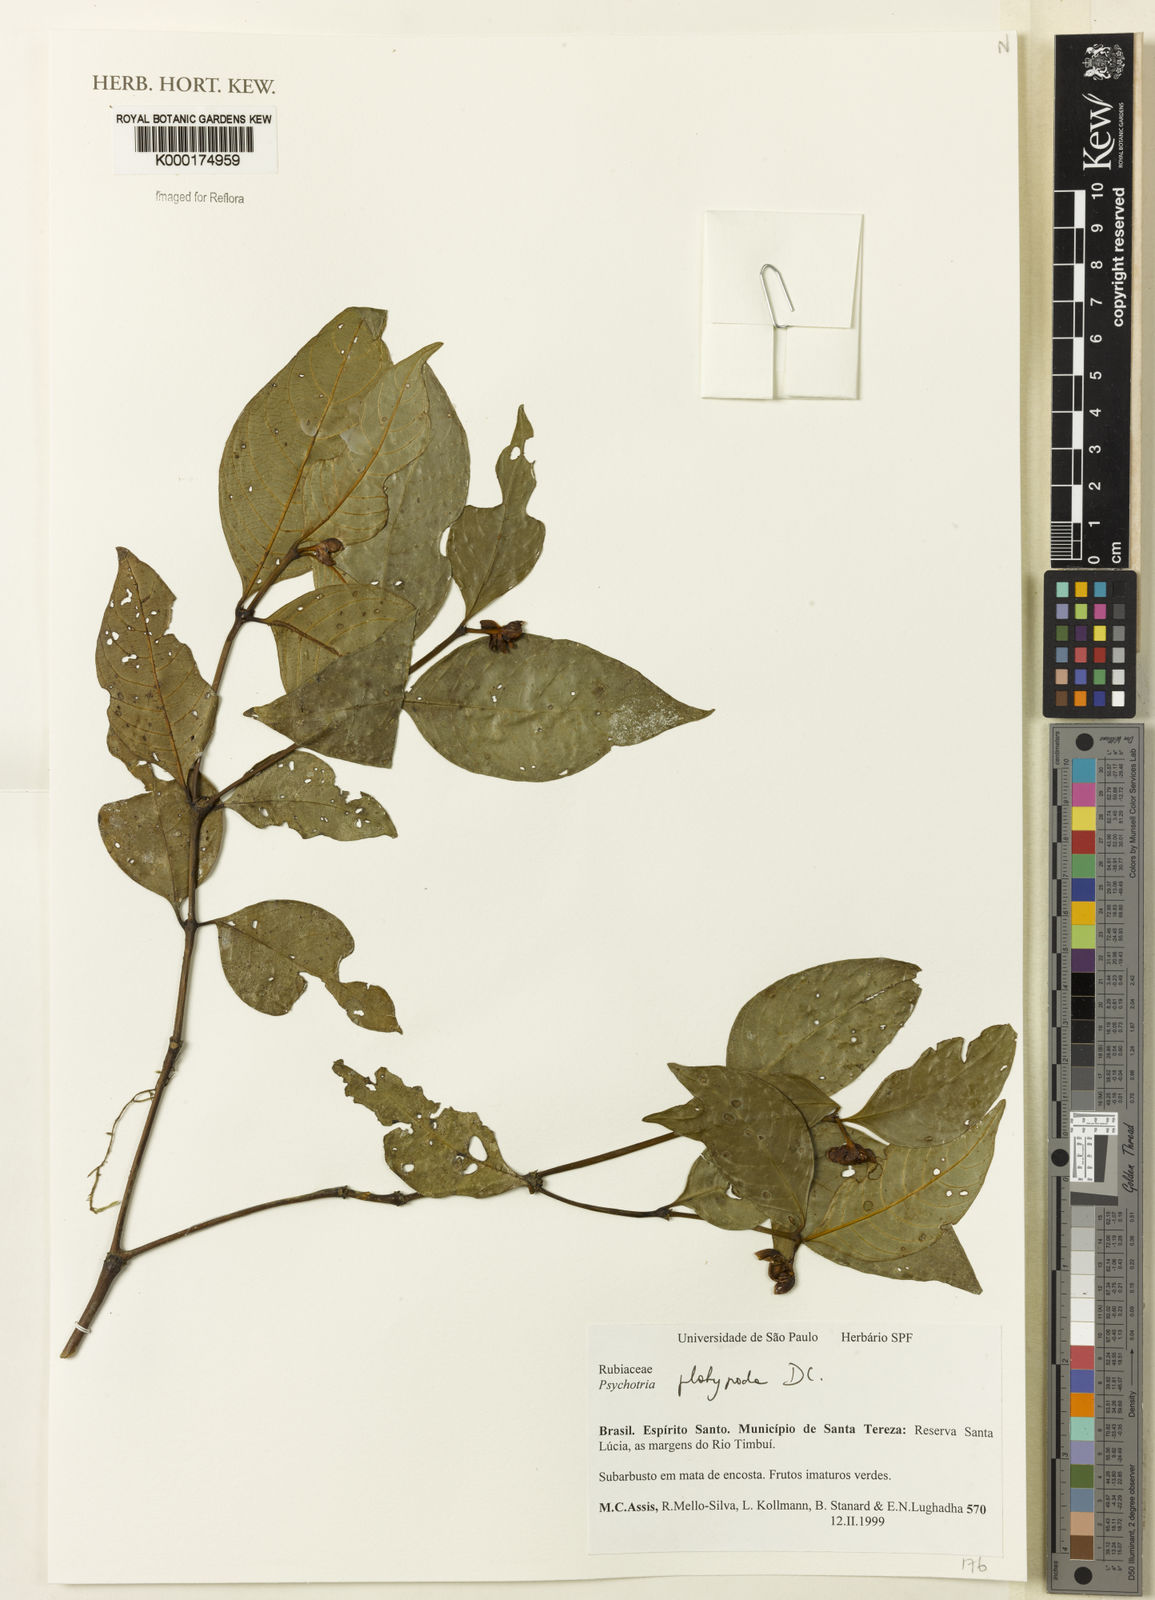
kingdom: Plantae
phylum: Tracheophyta
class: Magnoliopsida
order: Gentianales
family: Rubiaceae
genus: Palicourea
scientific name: Palicourea dichotoma
